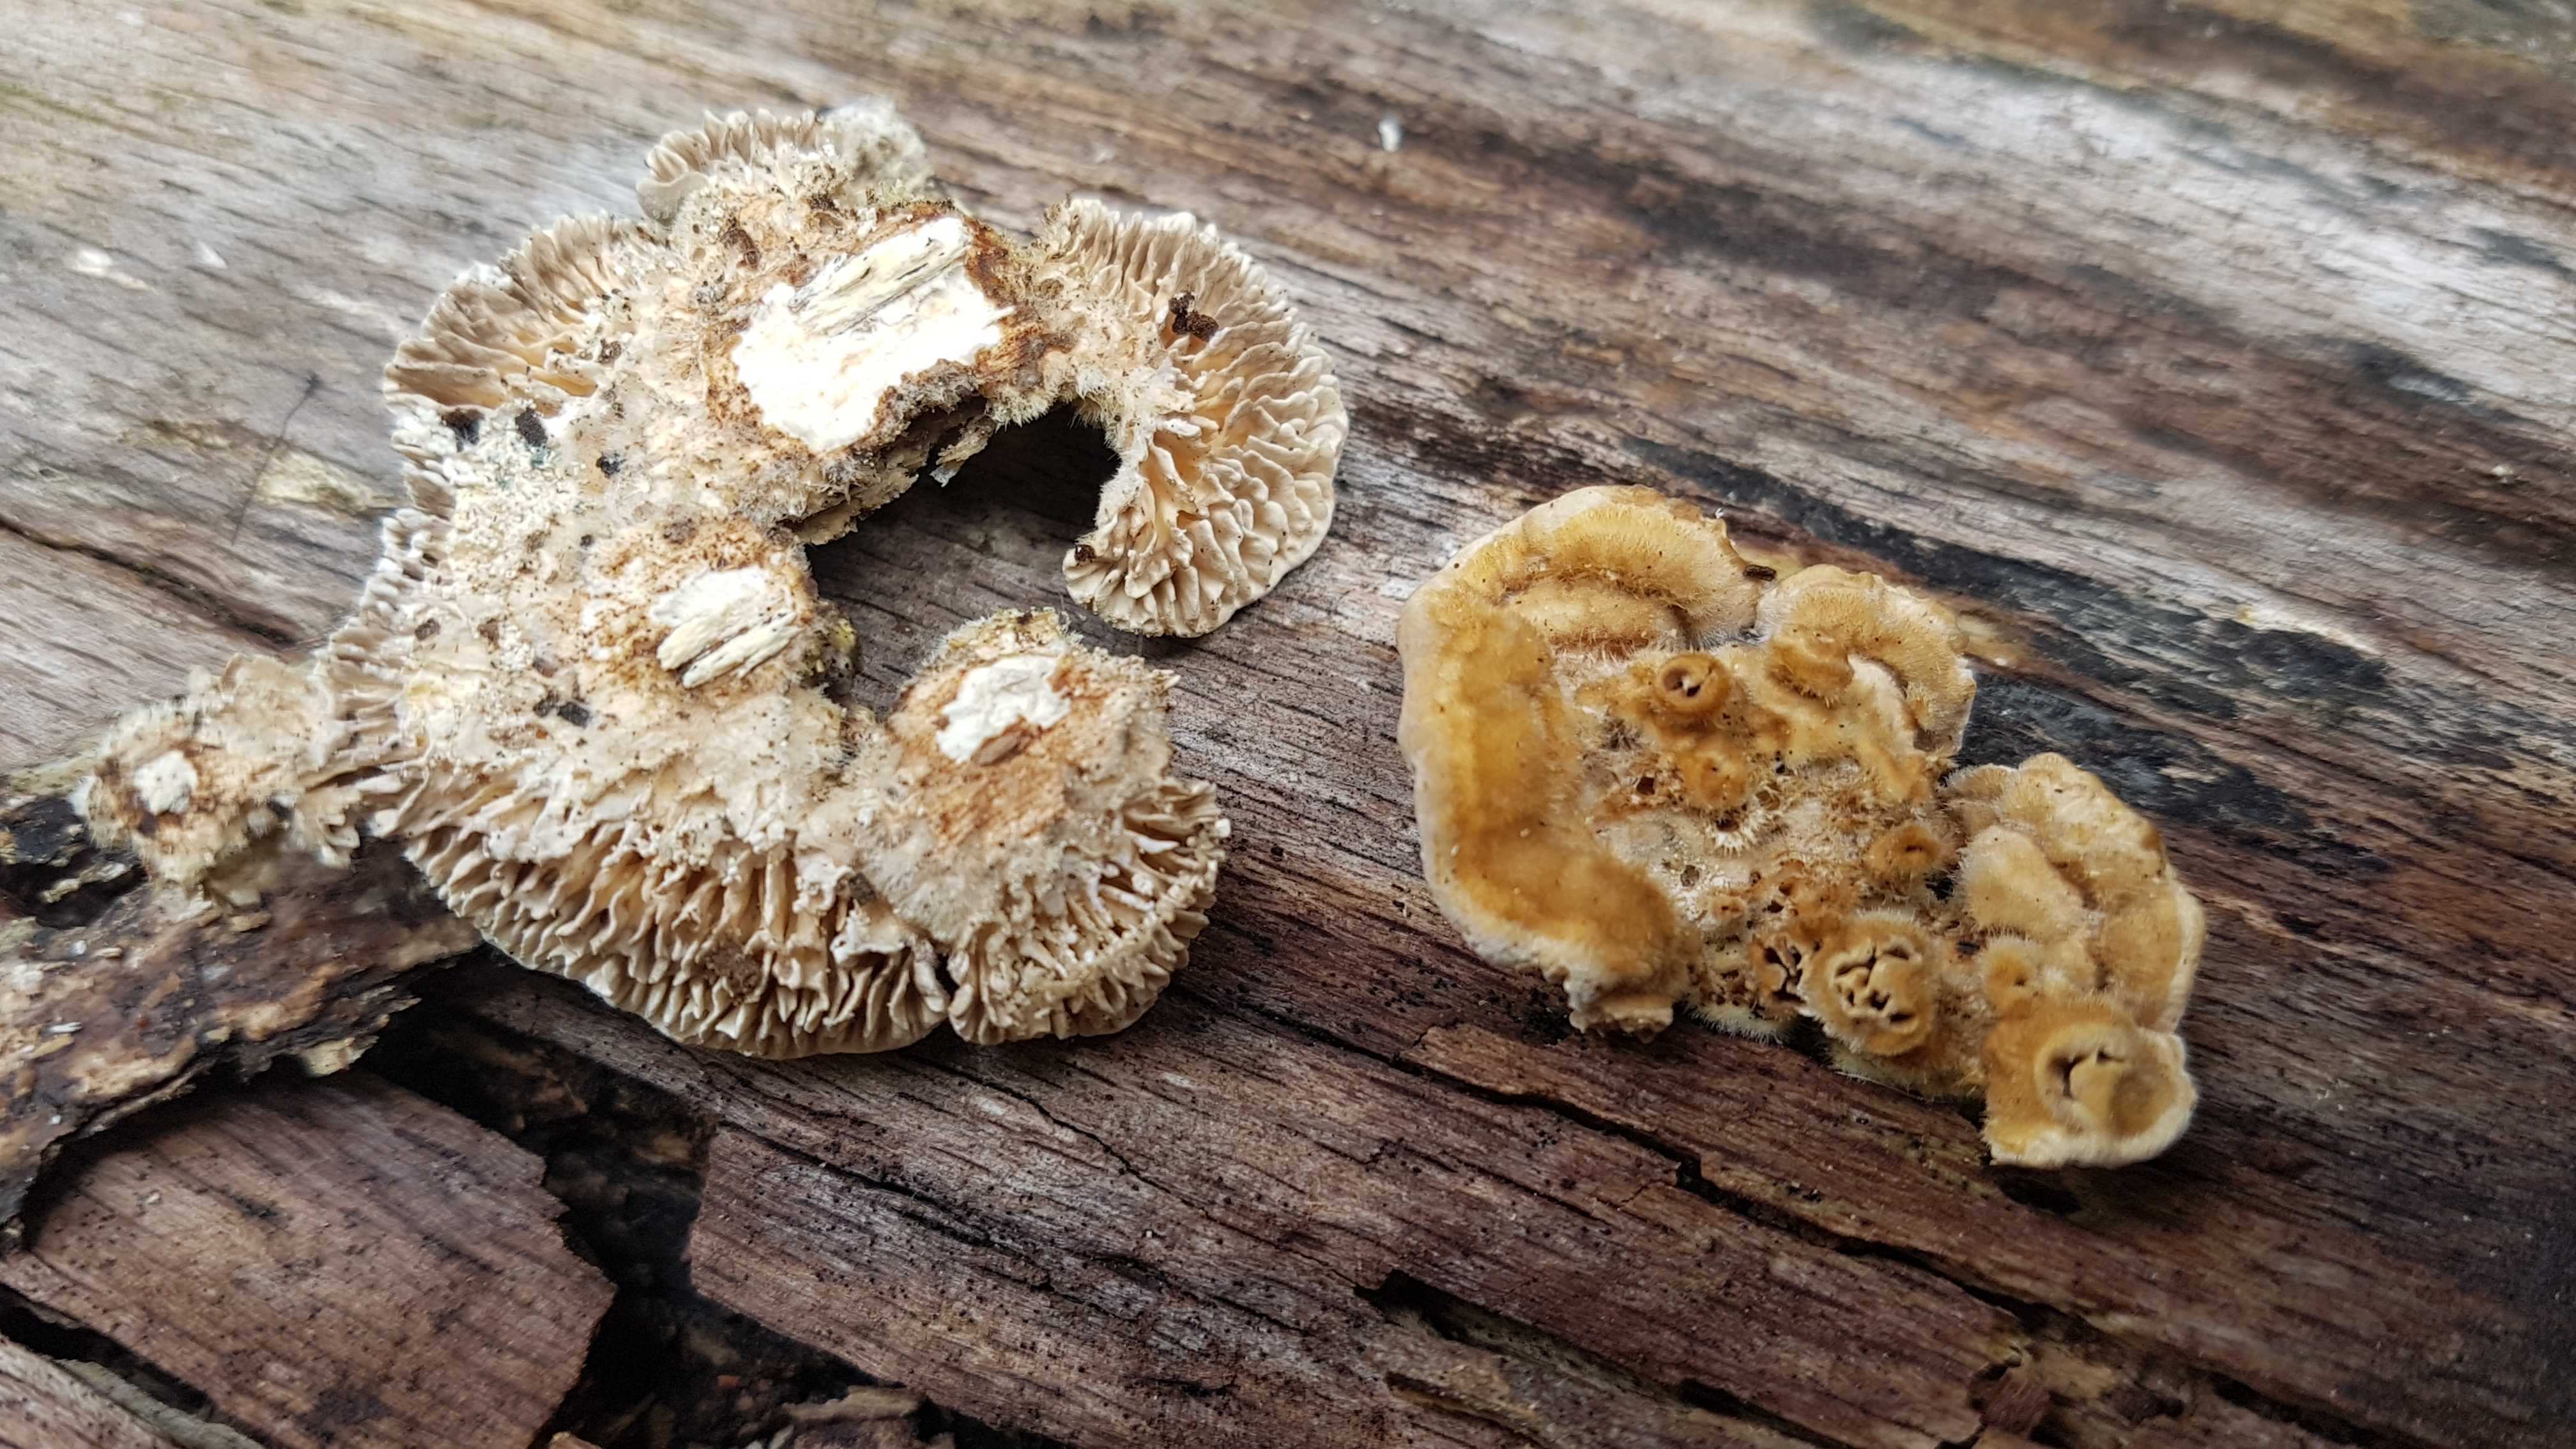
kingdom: Fungi
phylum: Basidiomycota
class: Agaricomycetes
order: Polyporales
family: Polyporaceae
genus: Lenzites
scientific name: Lenzites betulinus
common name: birke-læderporesvamp
